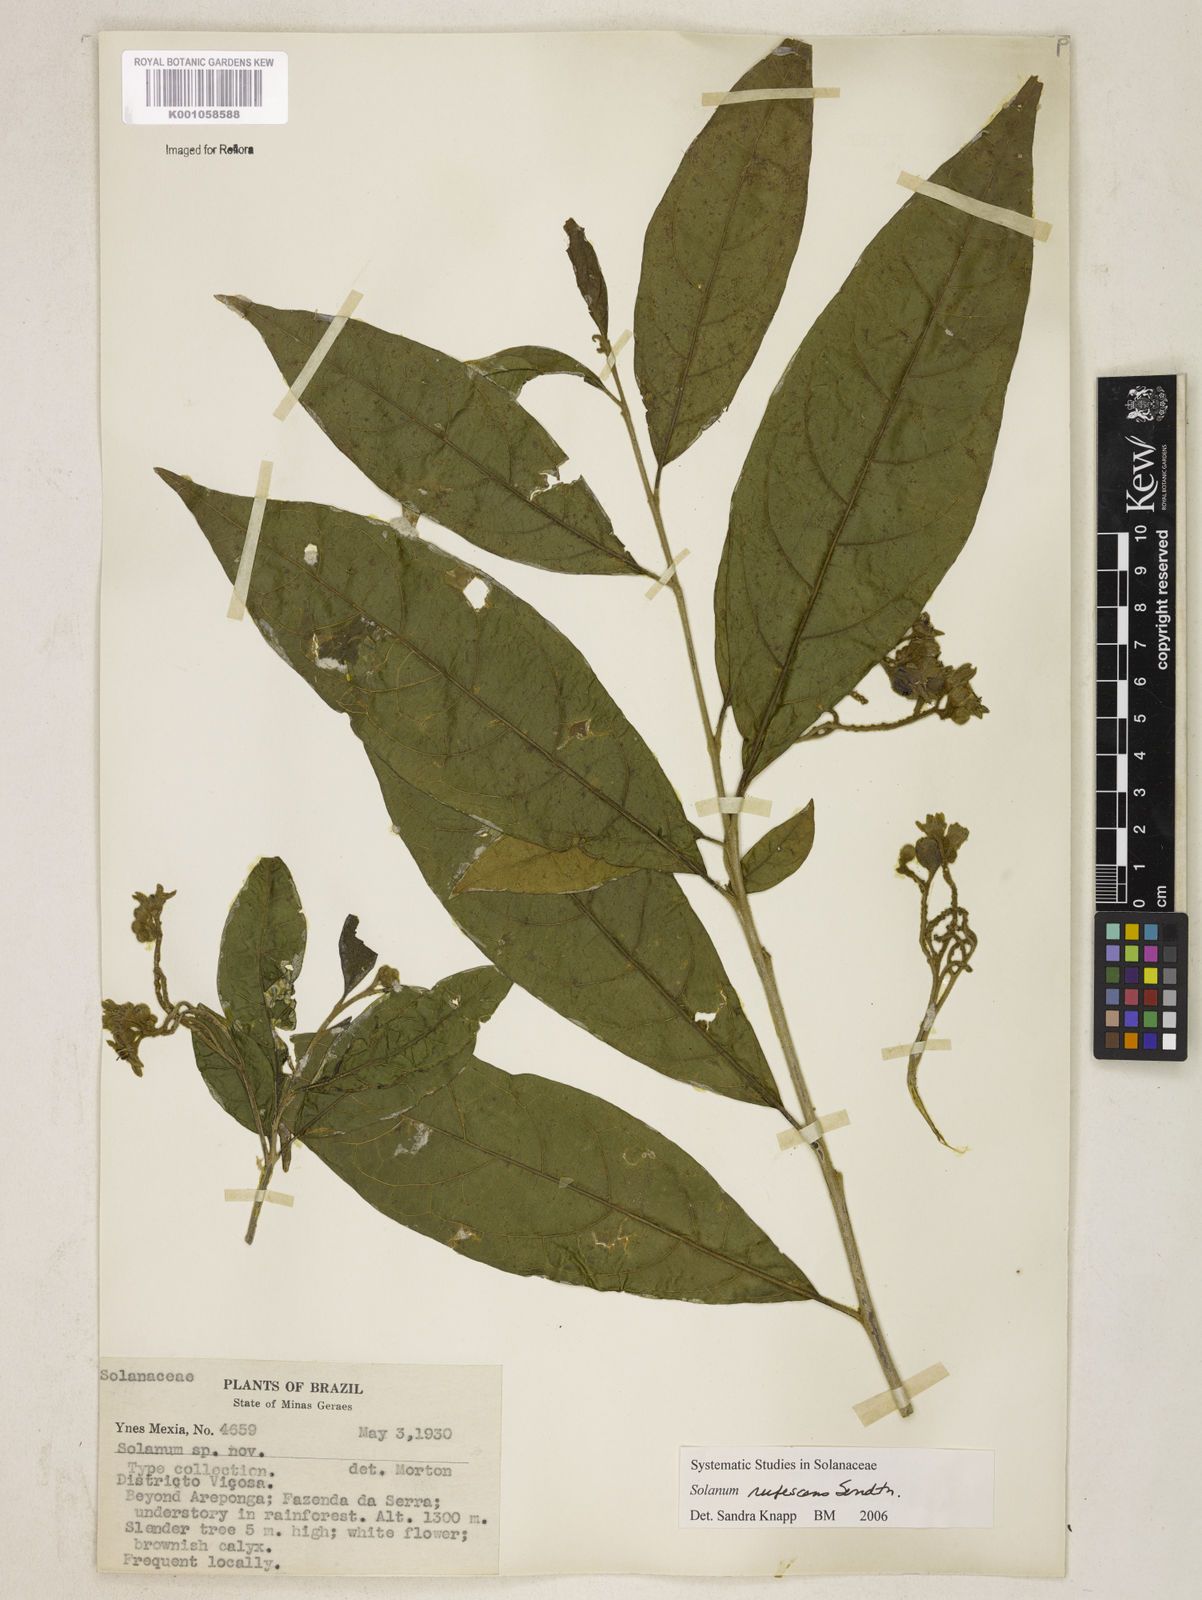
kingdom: Plantae
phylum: Tracheophyta
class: Magnoliopsida
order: Solanales
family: Solanaceae
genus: Solanum
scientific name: Solanum rufescens
